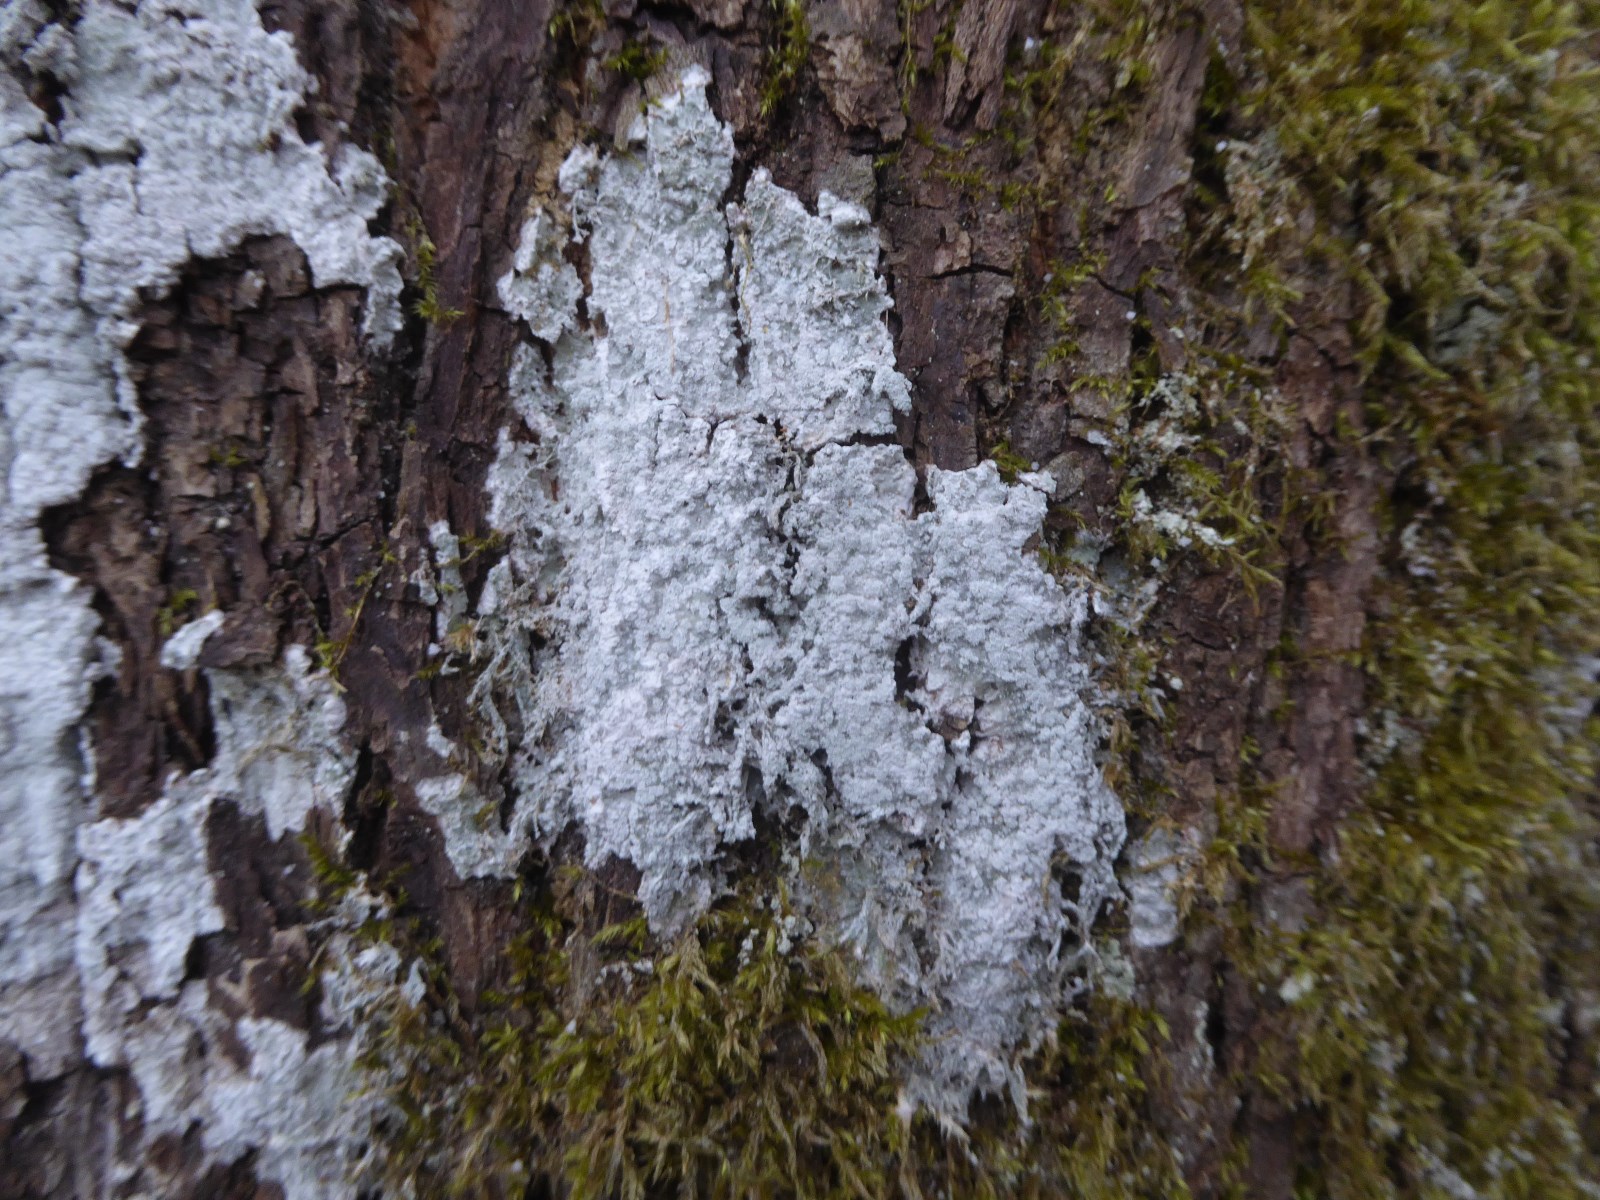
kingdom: Fungi
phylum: Ascomycota
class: Lecanoromycetes
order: Pertusariales
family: Pertusariaceae
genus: Lepra
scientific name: Lepra albescens
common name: hvidmelet prikvortelav
